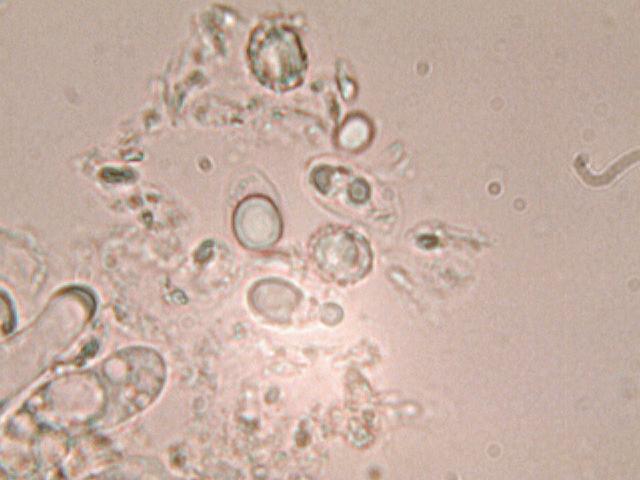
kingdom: Fungi
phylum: Basidiomycota
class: Agaricomycetes
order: Agaricales
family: Mycenaceae
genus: Mycena
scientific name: Mycena rubromarginata
